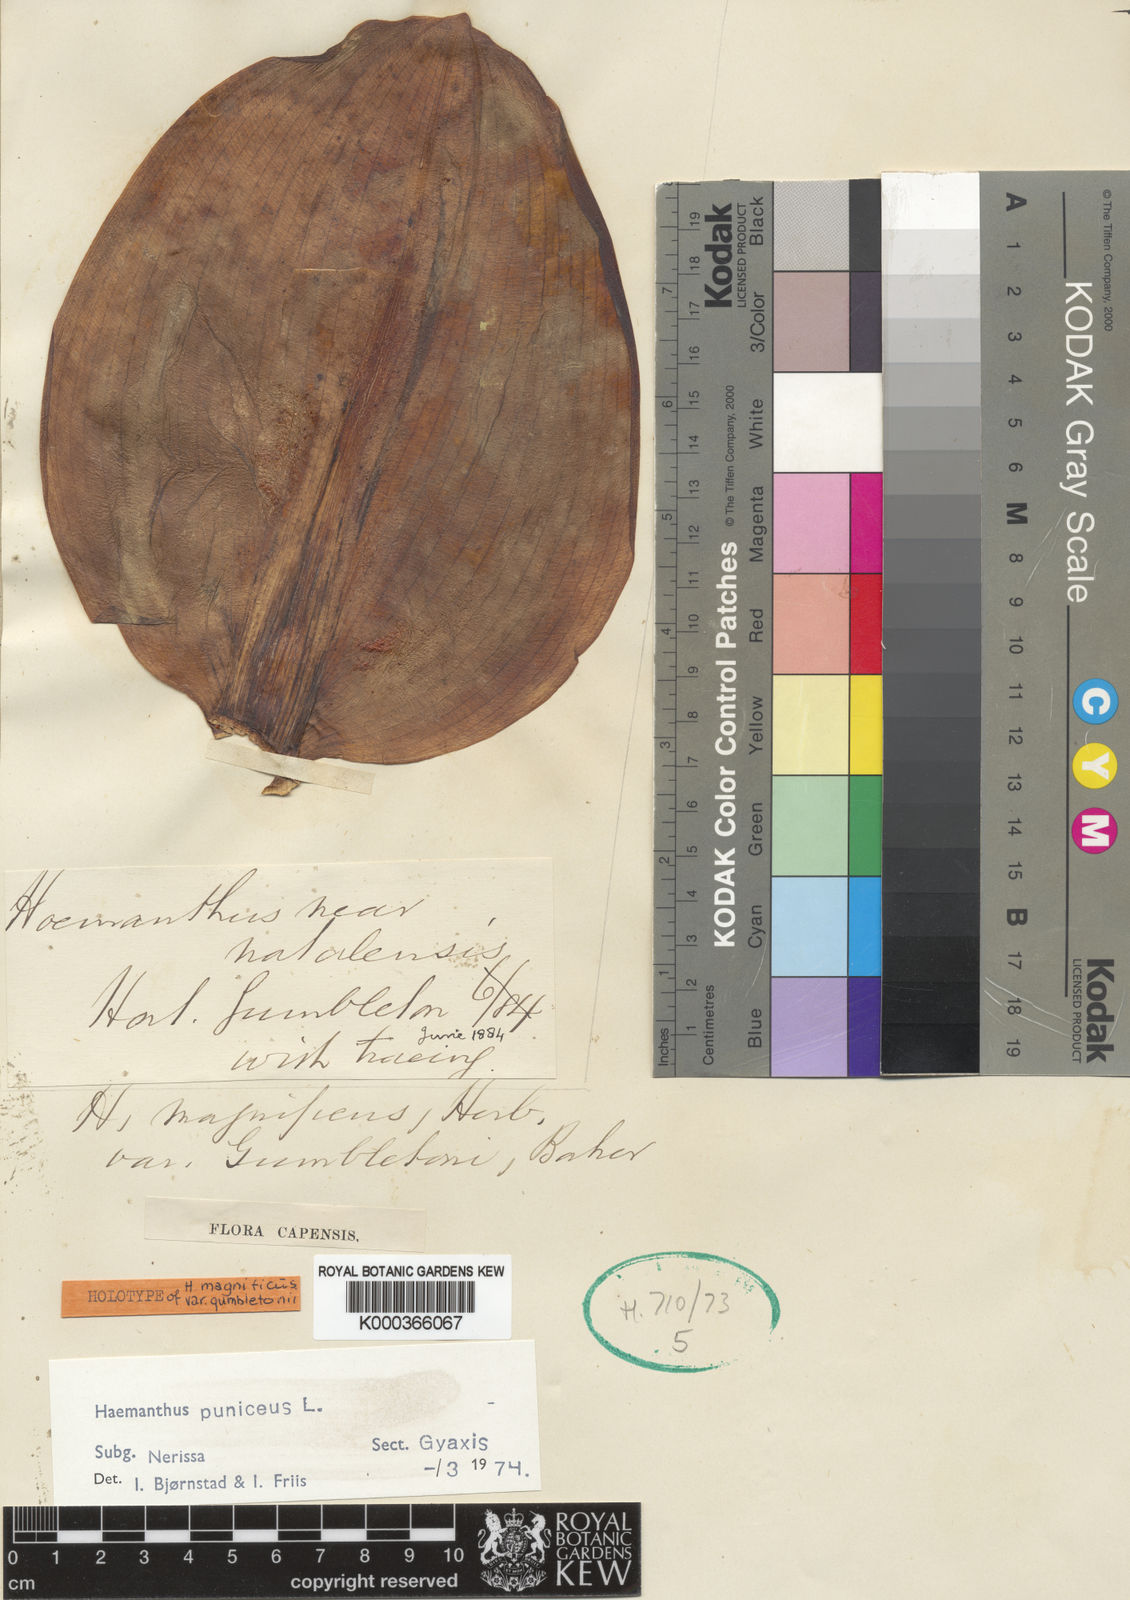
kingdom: Plantae
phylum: Tracheophyta
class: Liliopsida
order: Asparagales
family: Amaryllidaceae
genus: Scadoxus
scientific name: Scadoxus puniceus
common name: Royal-paintbrush
